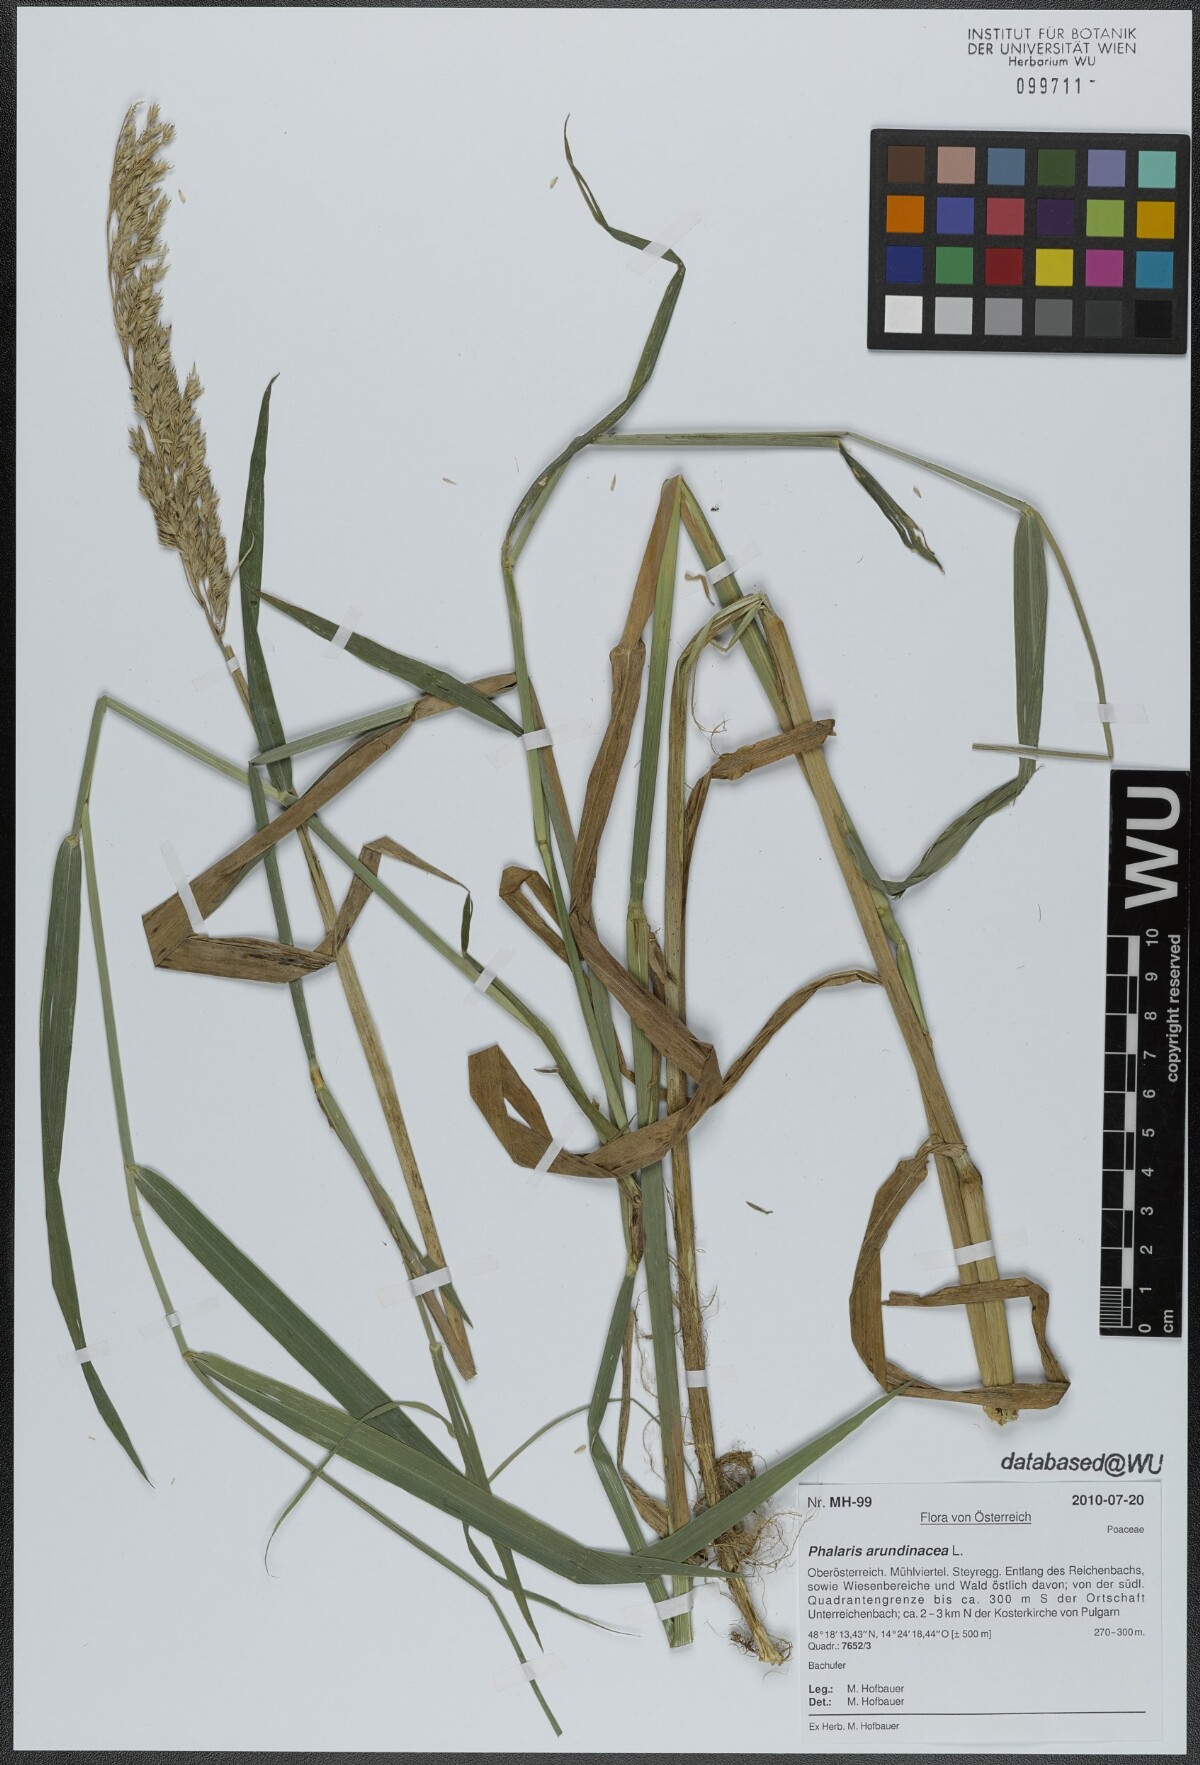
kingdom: Plantae
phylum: Tracheophyta
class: Liliopsida
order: Poales
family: Poaceae
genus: Phalaris
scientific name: Phalaris arundinacea
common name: Reed canary-grass
